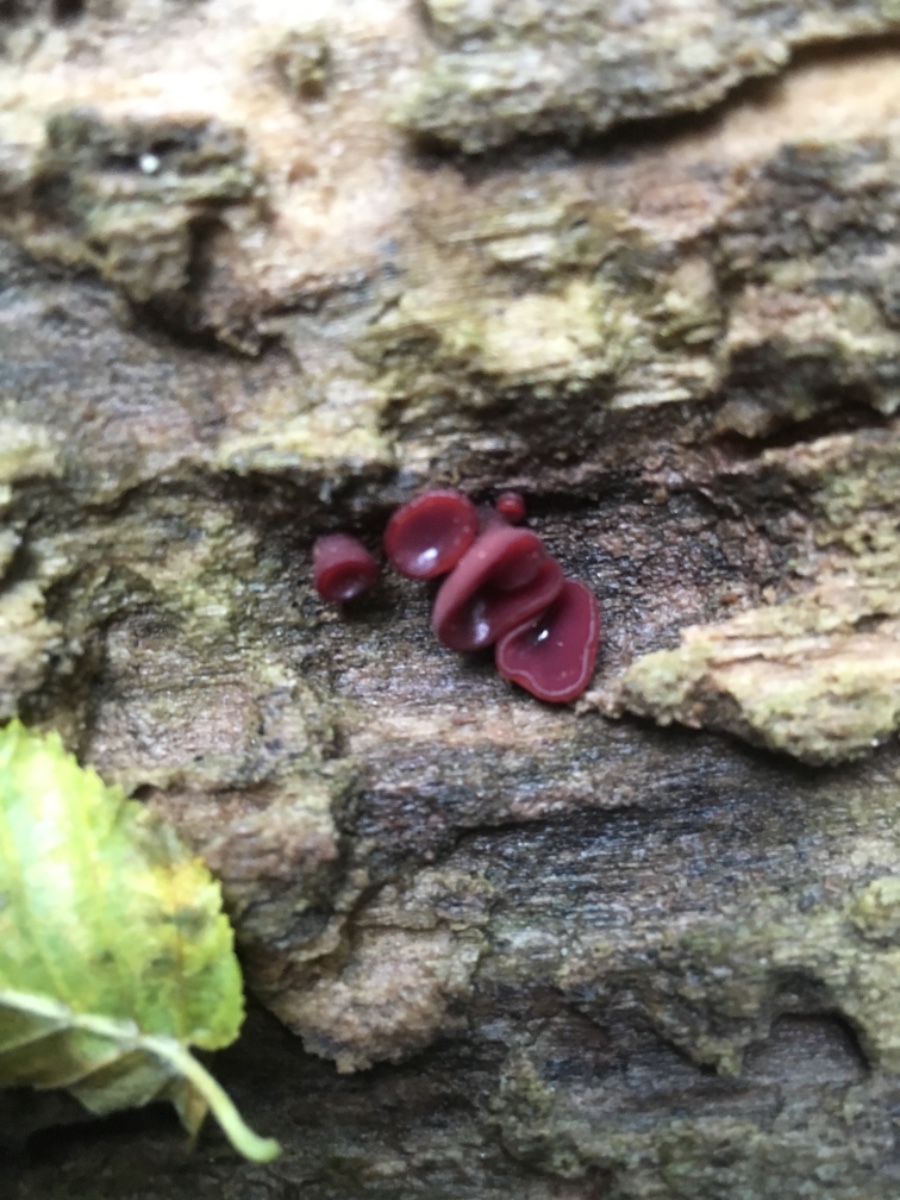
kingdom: Fungi
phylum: Ascomycota
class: Leotiomycetes
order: Helotiales
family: Gelatinodiscaceae
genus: Ascocoryne
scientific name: Ascocoryne cylichnium
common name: stor sejskive
